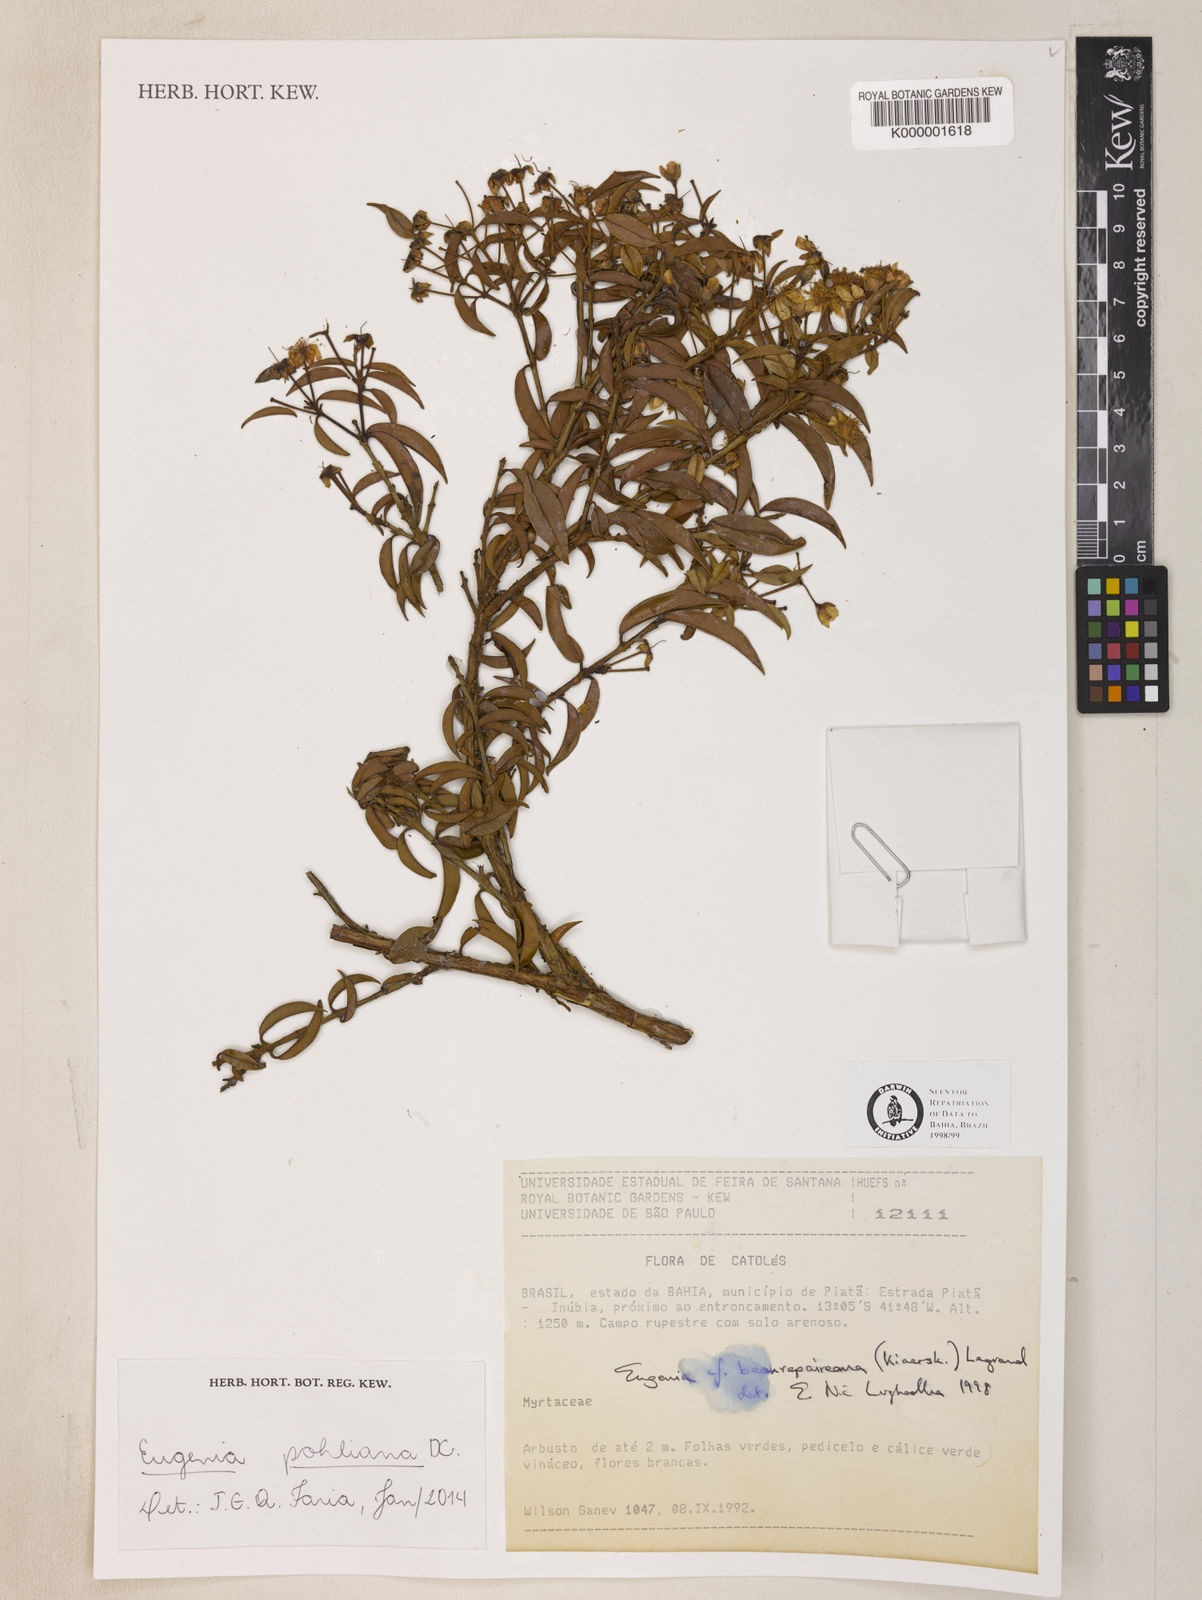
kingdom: Plantae
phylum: Tracheophyta
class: Magnoliopsida
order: Myrtales
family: Myrtaceae
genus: Eugenia
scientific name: Eugenia pohliana
